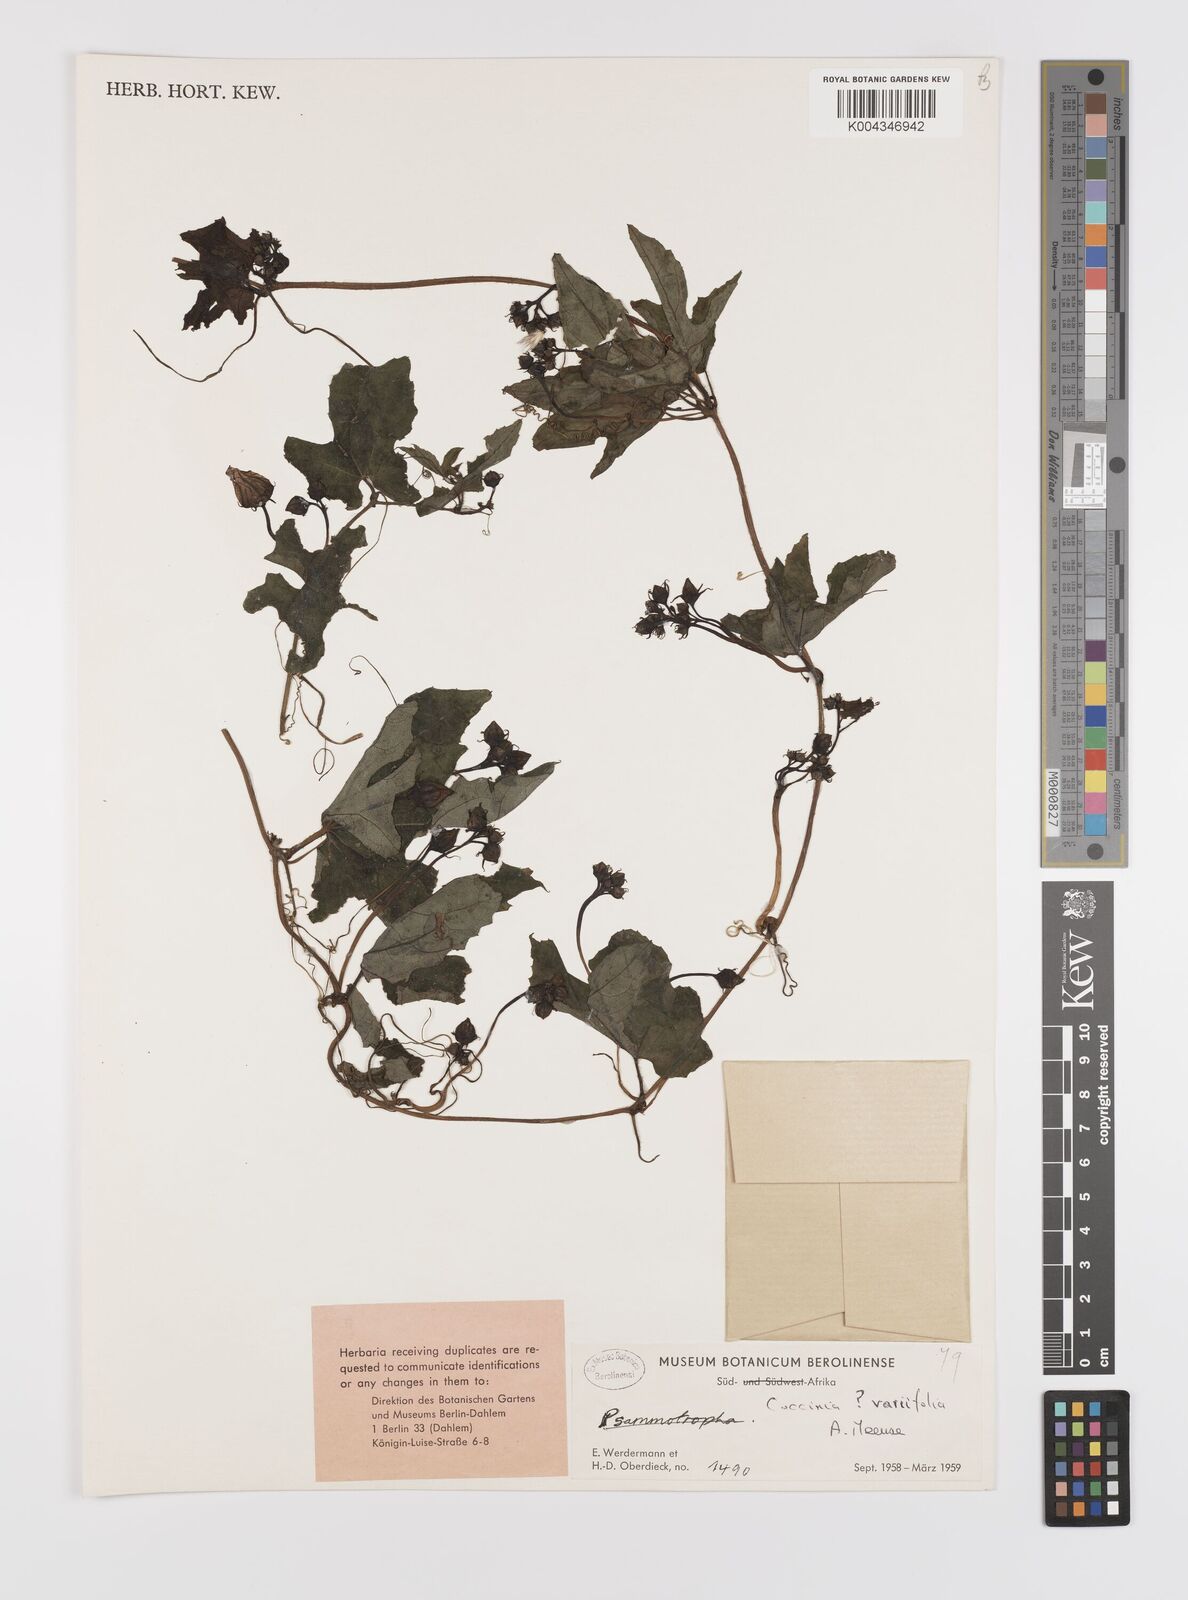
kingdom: Plantae
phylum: Tracheophyta
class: Magnoliopsida
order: Cucurbitales
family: Cucurbitaceae
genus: Coccinia
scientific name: Coccinia sessilifolia
